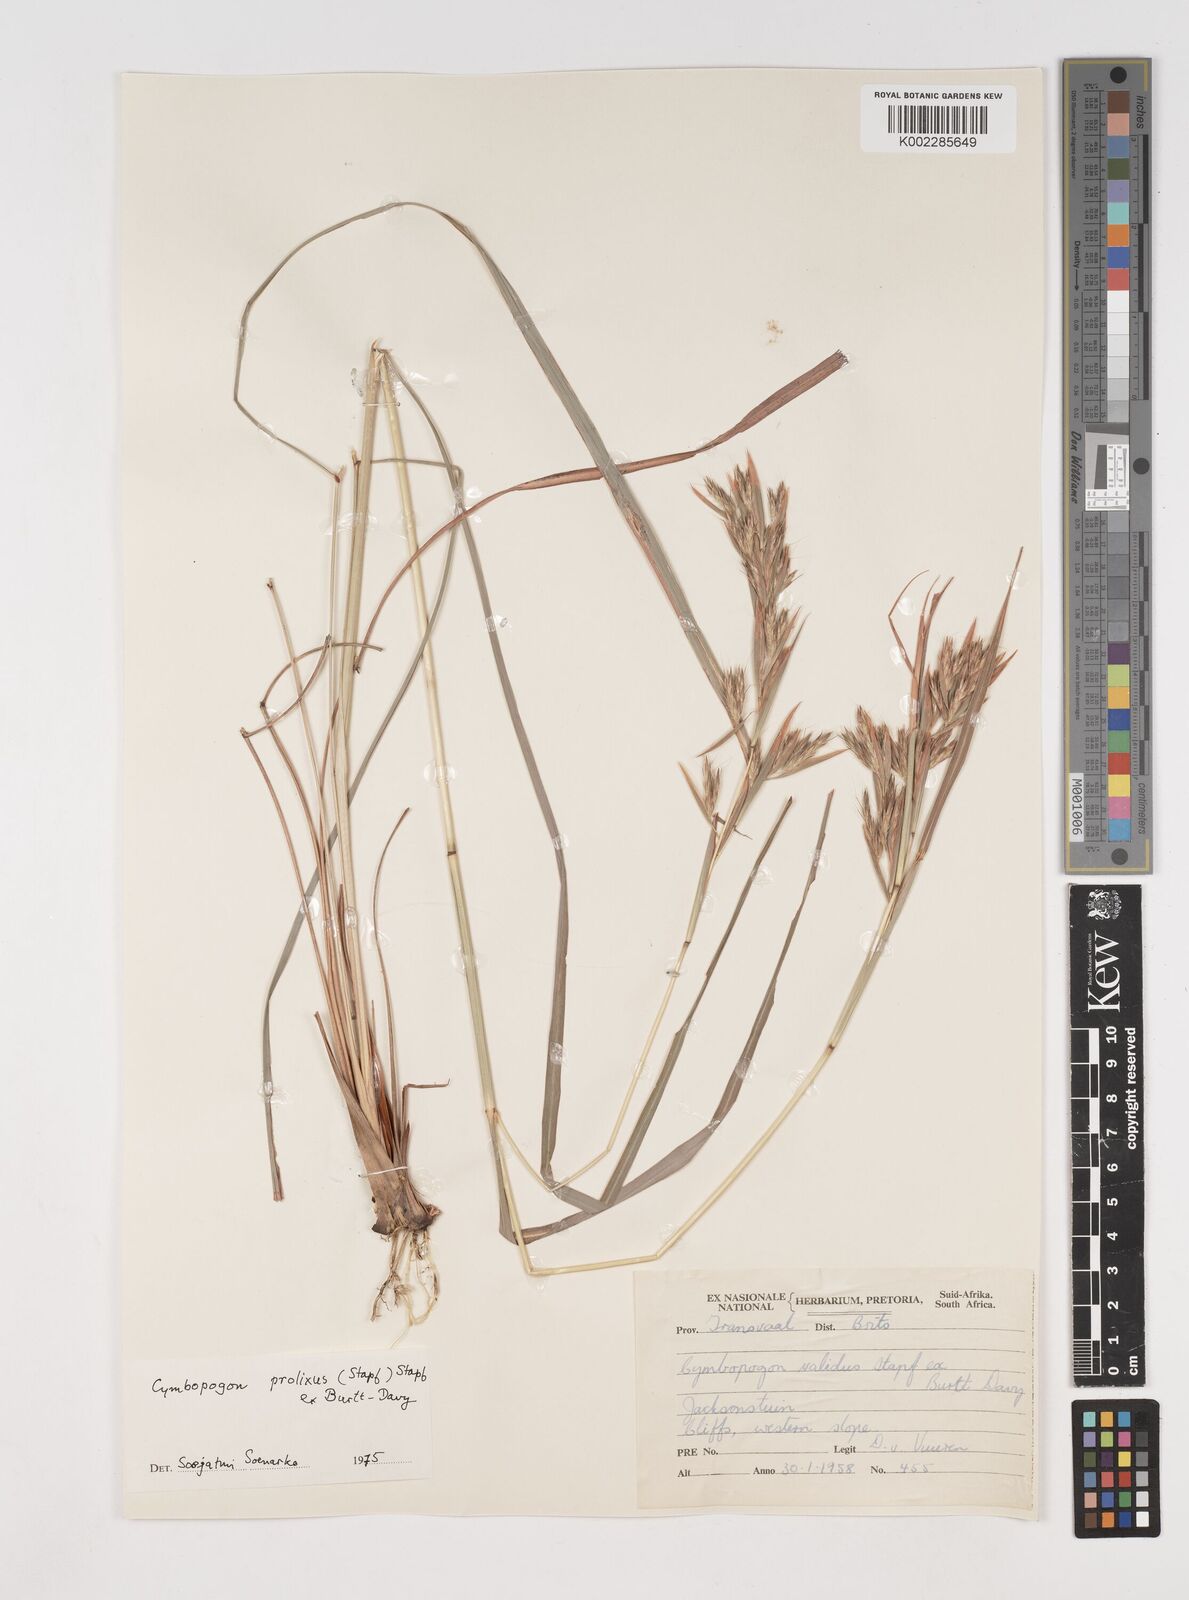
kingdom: Plantae
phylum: Tracheophyta
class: Liliopsida
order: Poales
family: Poaceae
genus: Cymbopogon
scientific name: Cymbopogon marginatus
